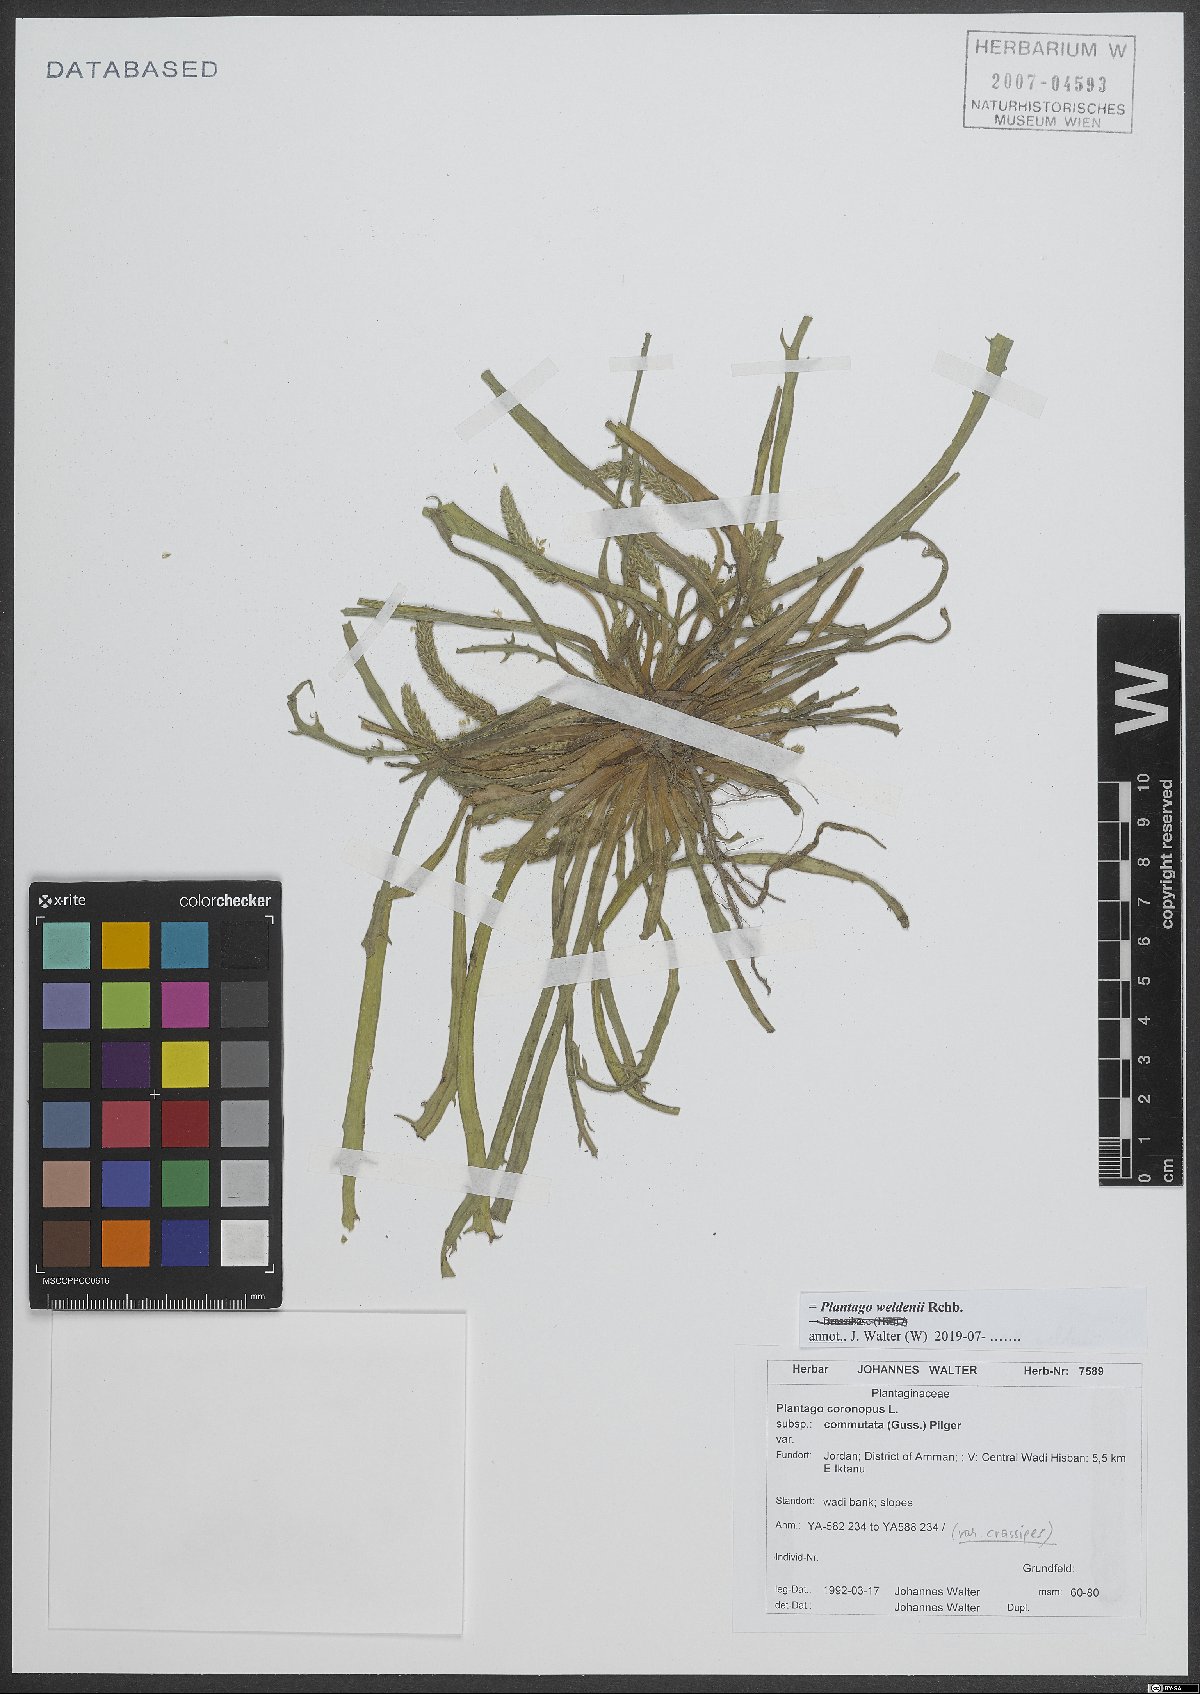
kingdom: Plantae
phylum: Tracheophyta
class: Magnoliopsida
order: Lamiales
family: Plantaginaceae
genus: Plantago
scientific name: Plantago weldenii
